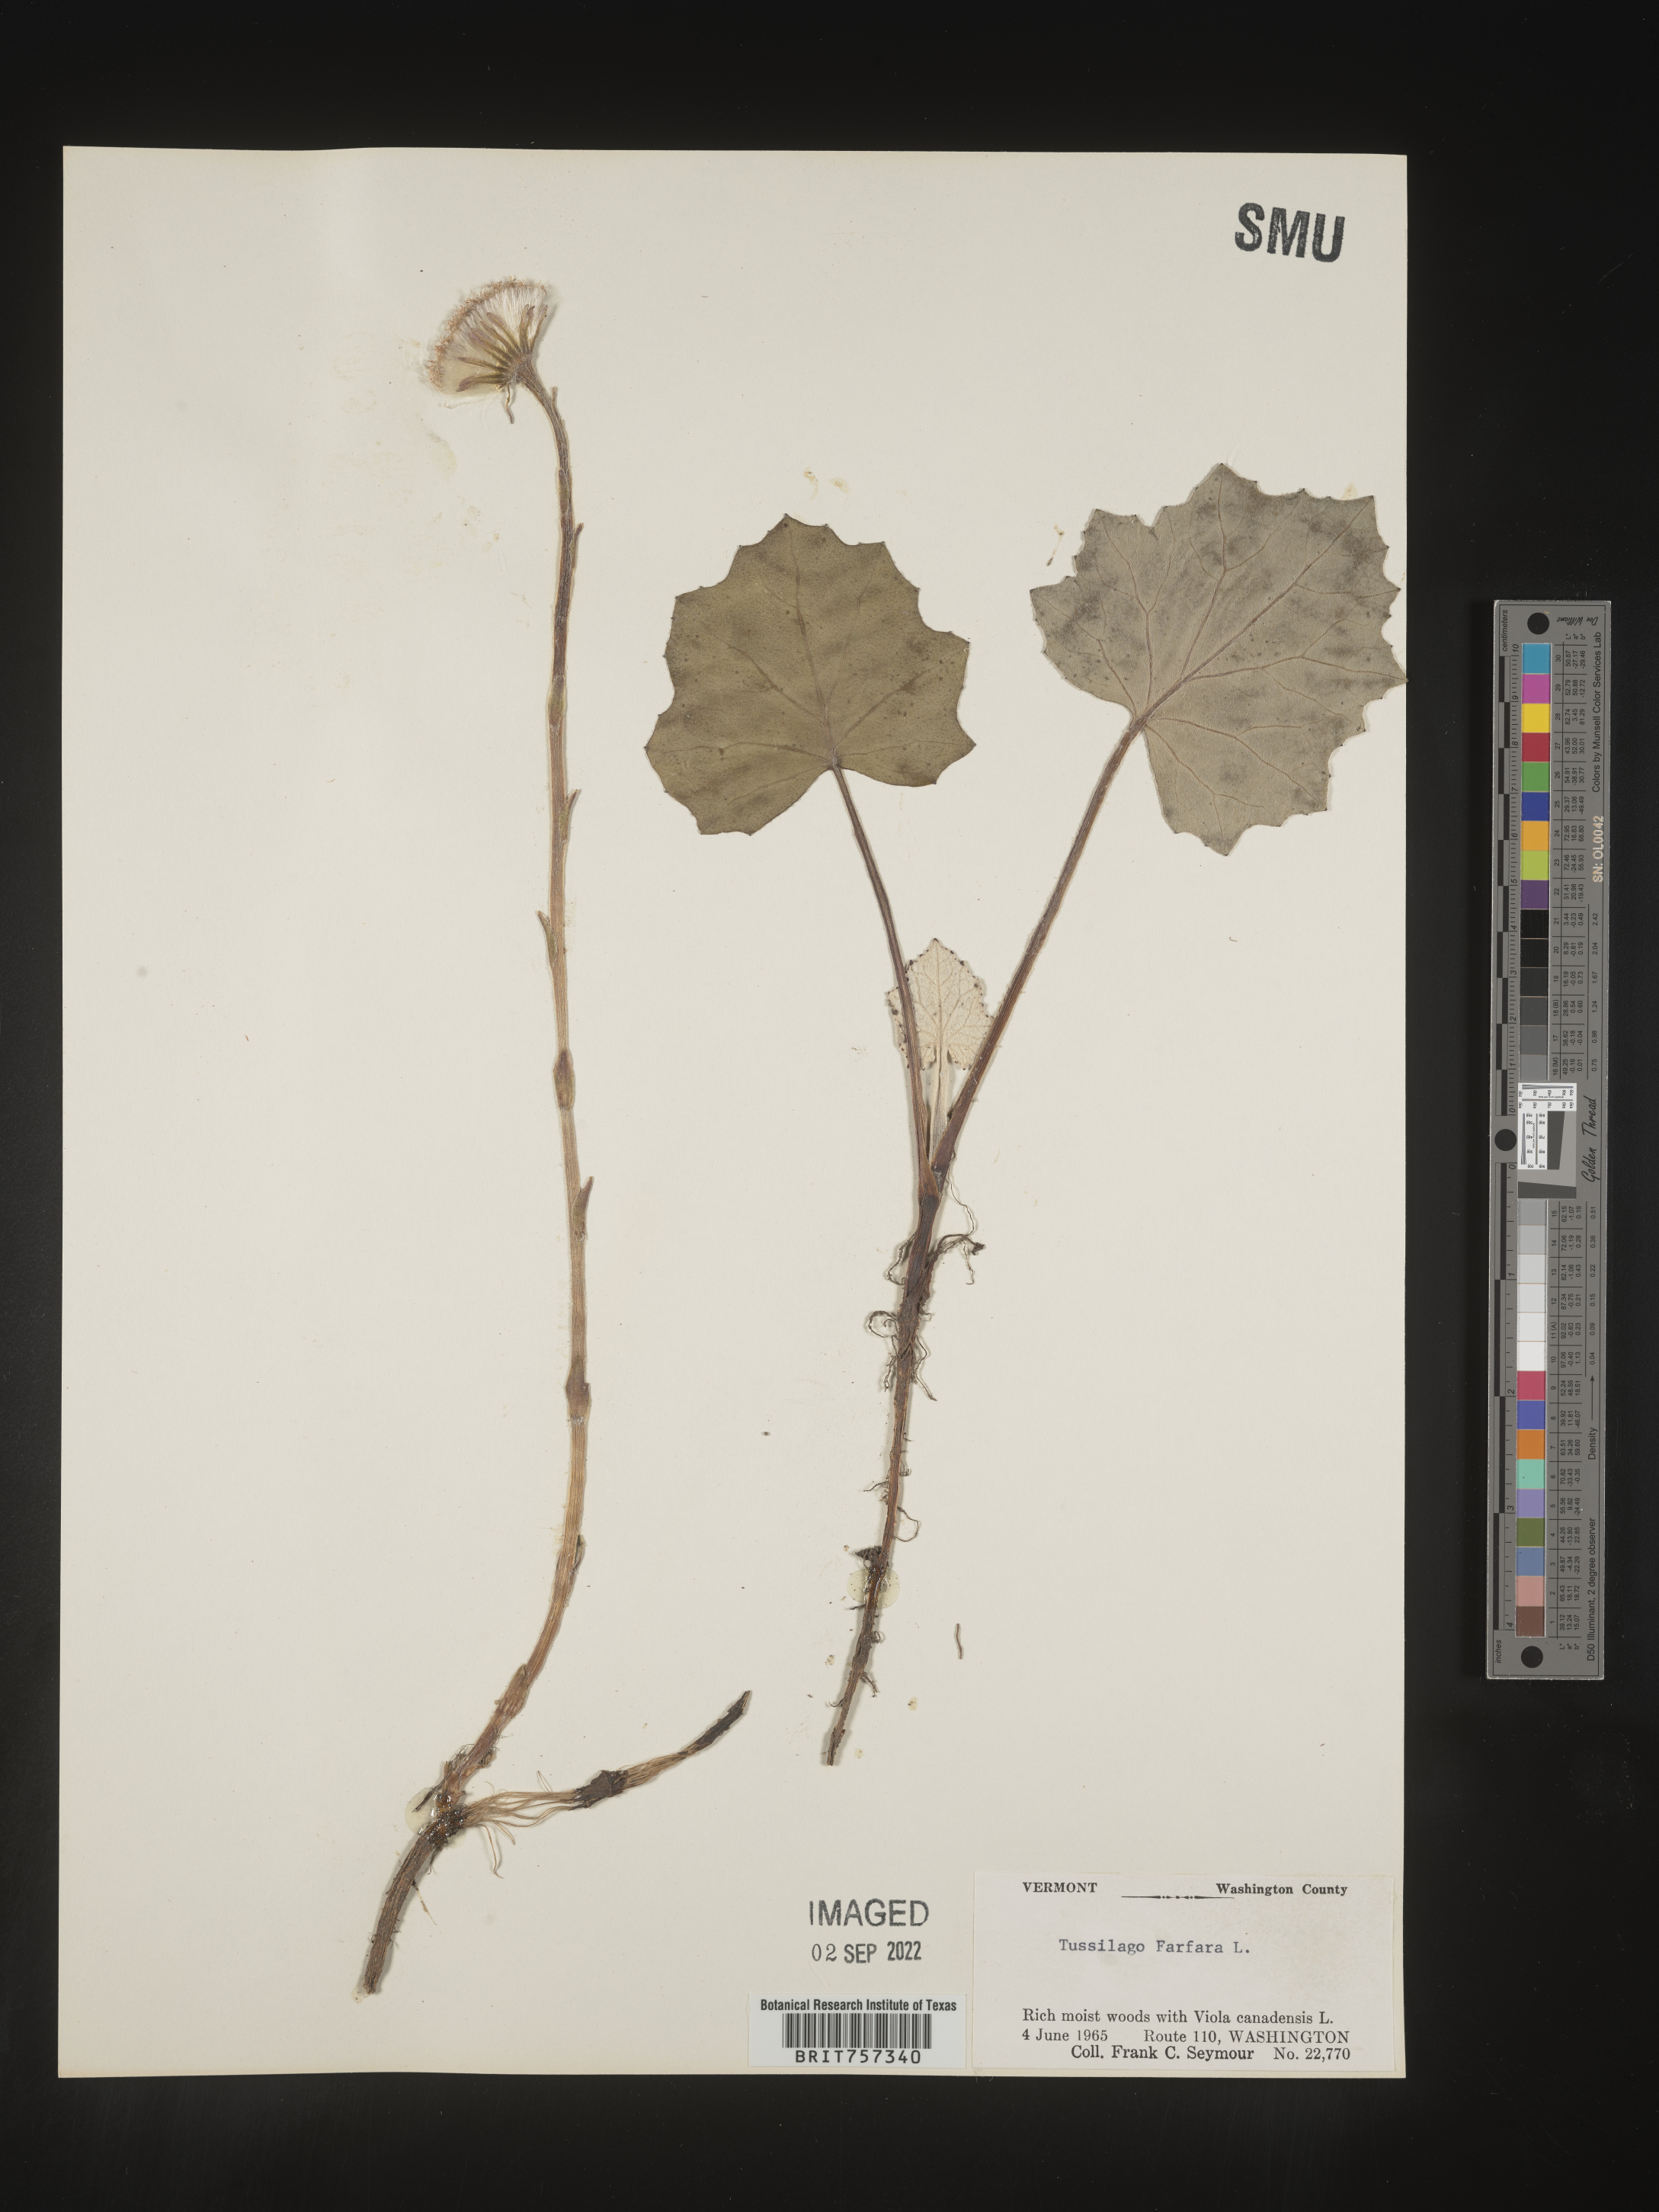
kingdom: Plantae
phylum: Tracheophyta
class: Magnoliopsida
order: Asterales
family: Asteraceae
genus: Tussilago
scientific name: Tussilago
